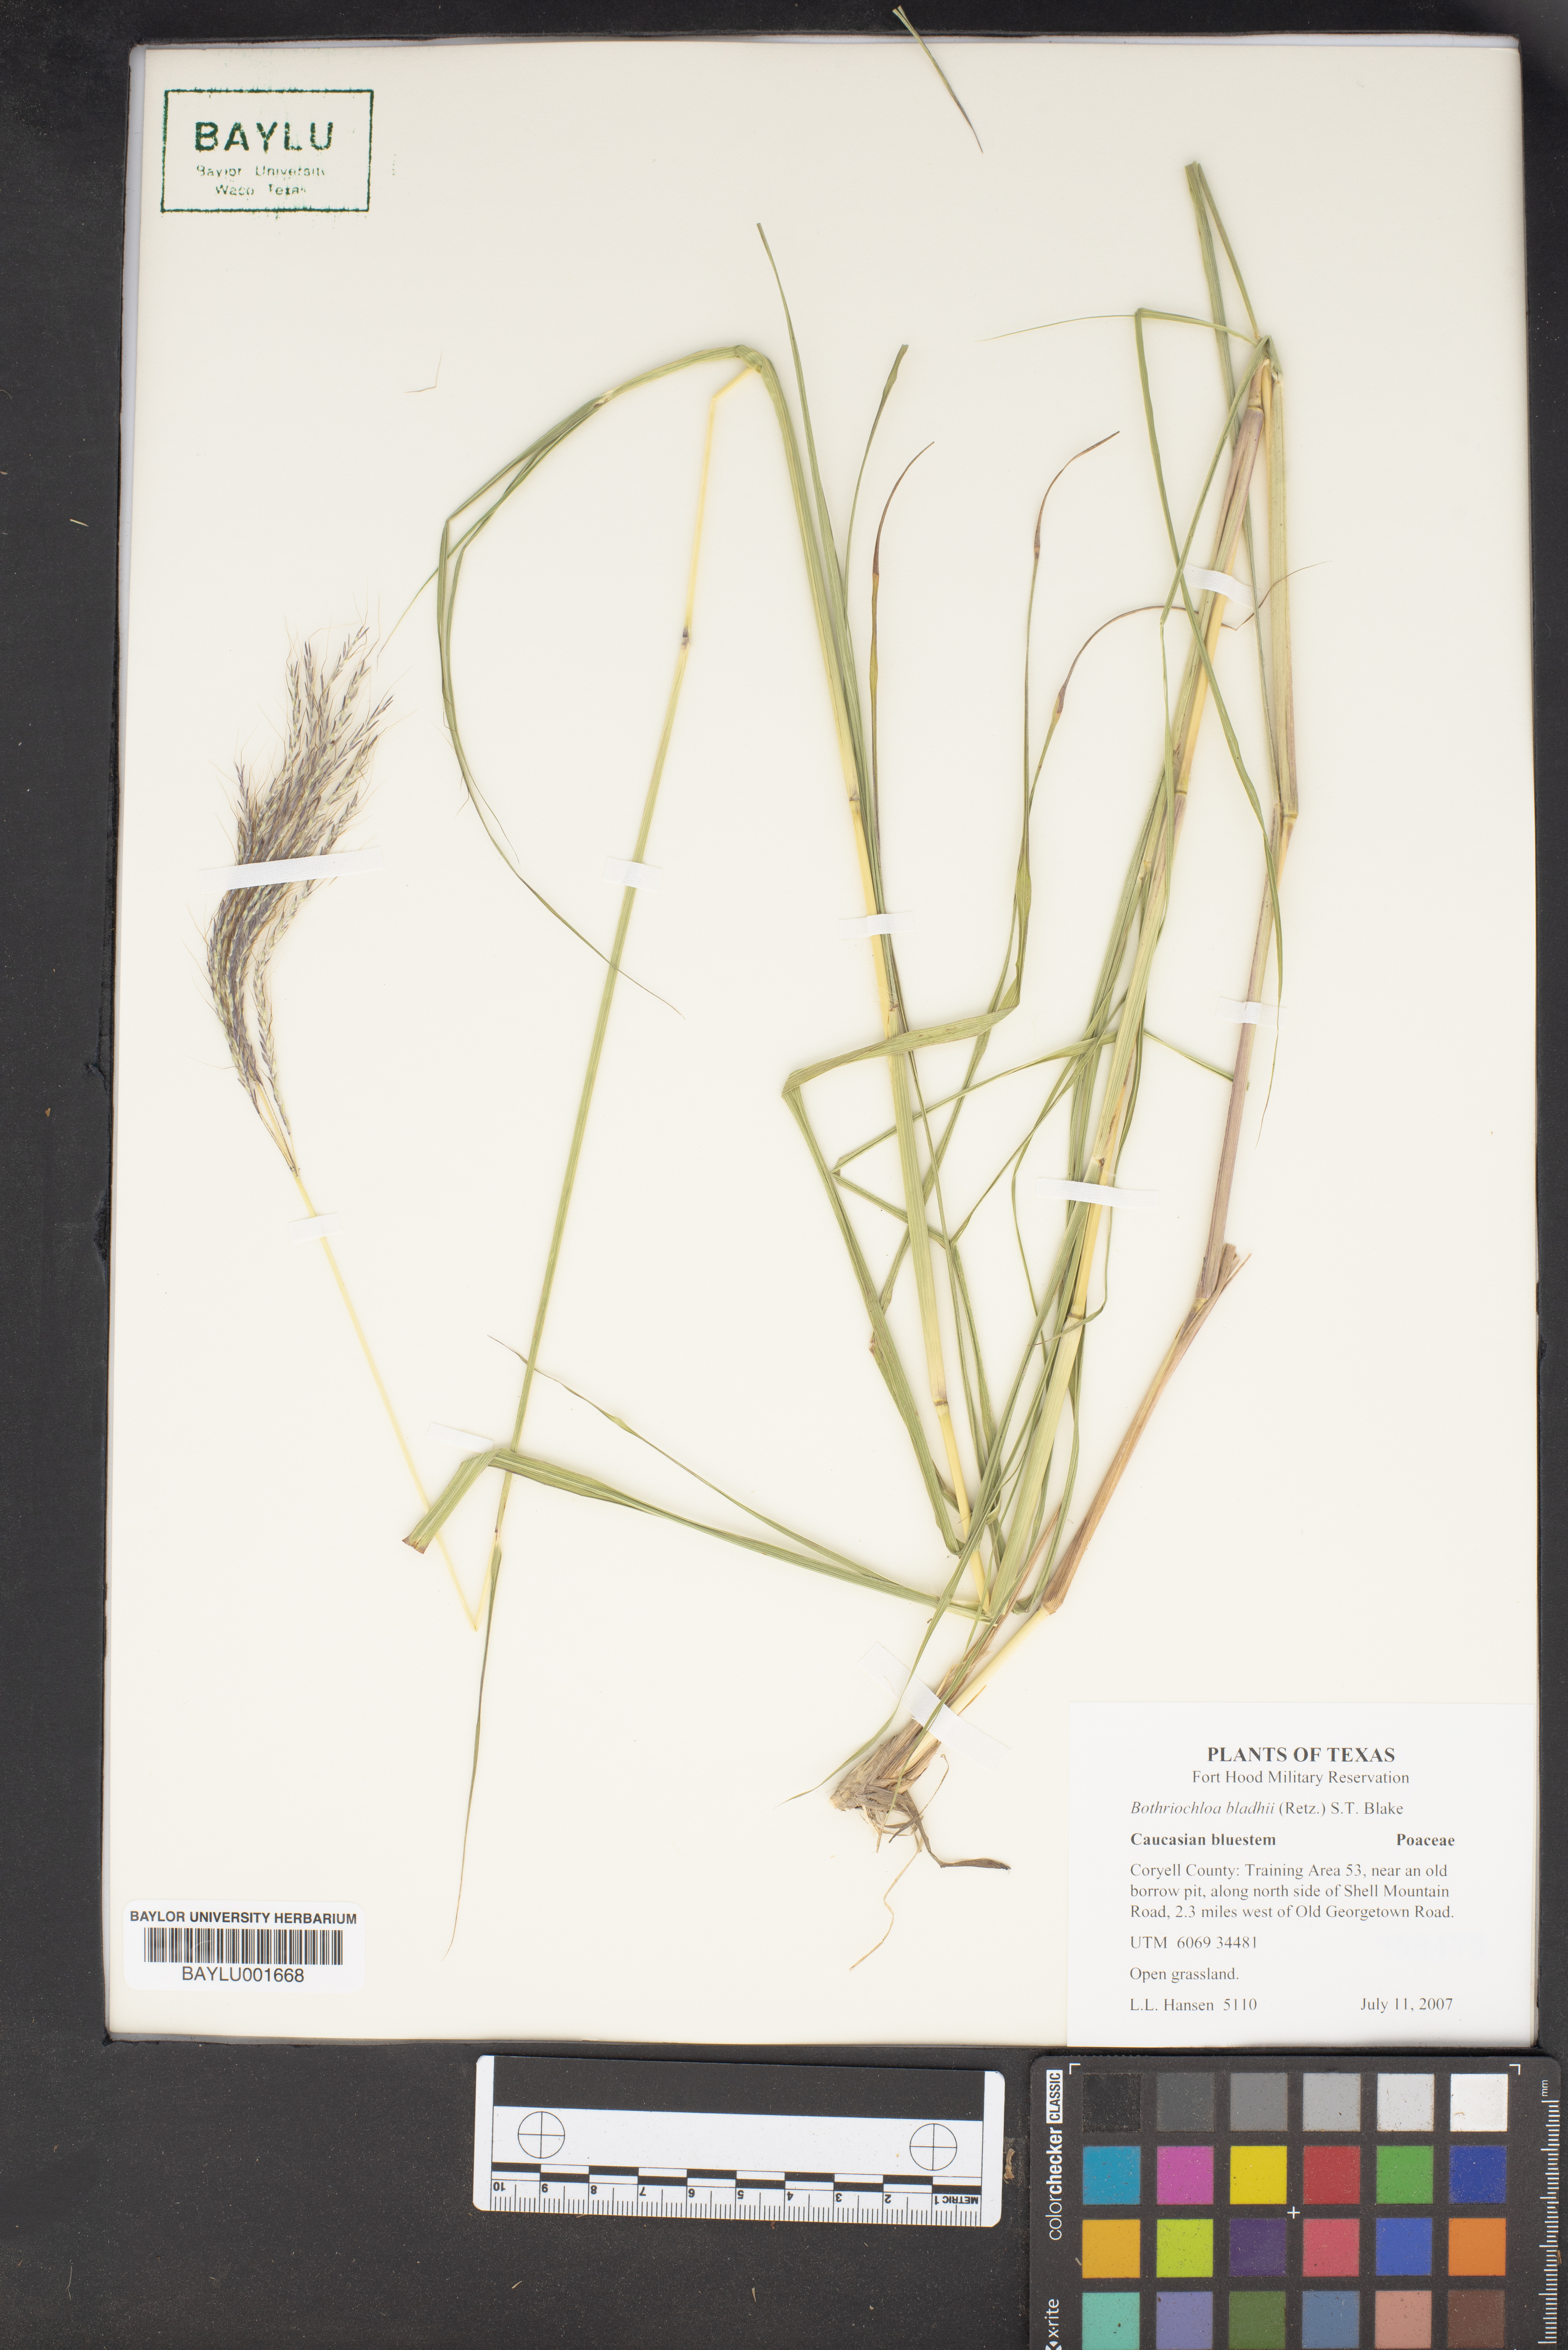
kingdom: Plantae
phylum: Tracheophyta
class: Liliopsida
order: Poales
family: Poaceae
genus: Bothriochloa
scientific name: Bothriochloa bladhii
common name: Caucasian bluestem
